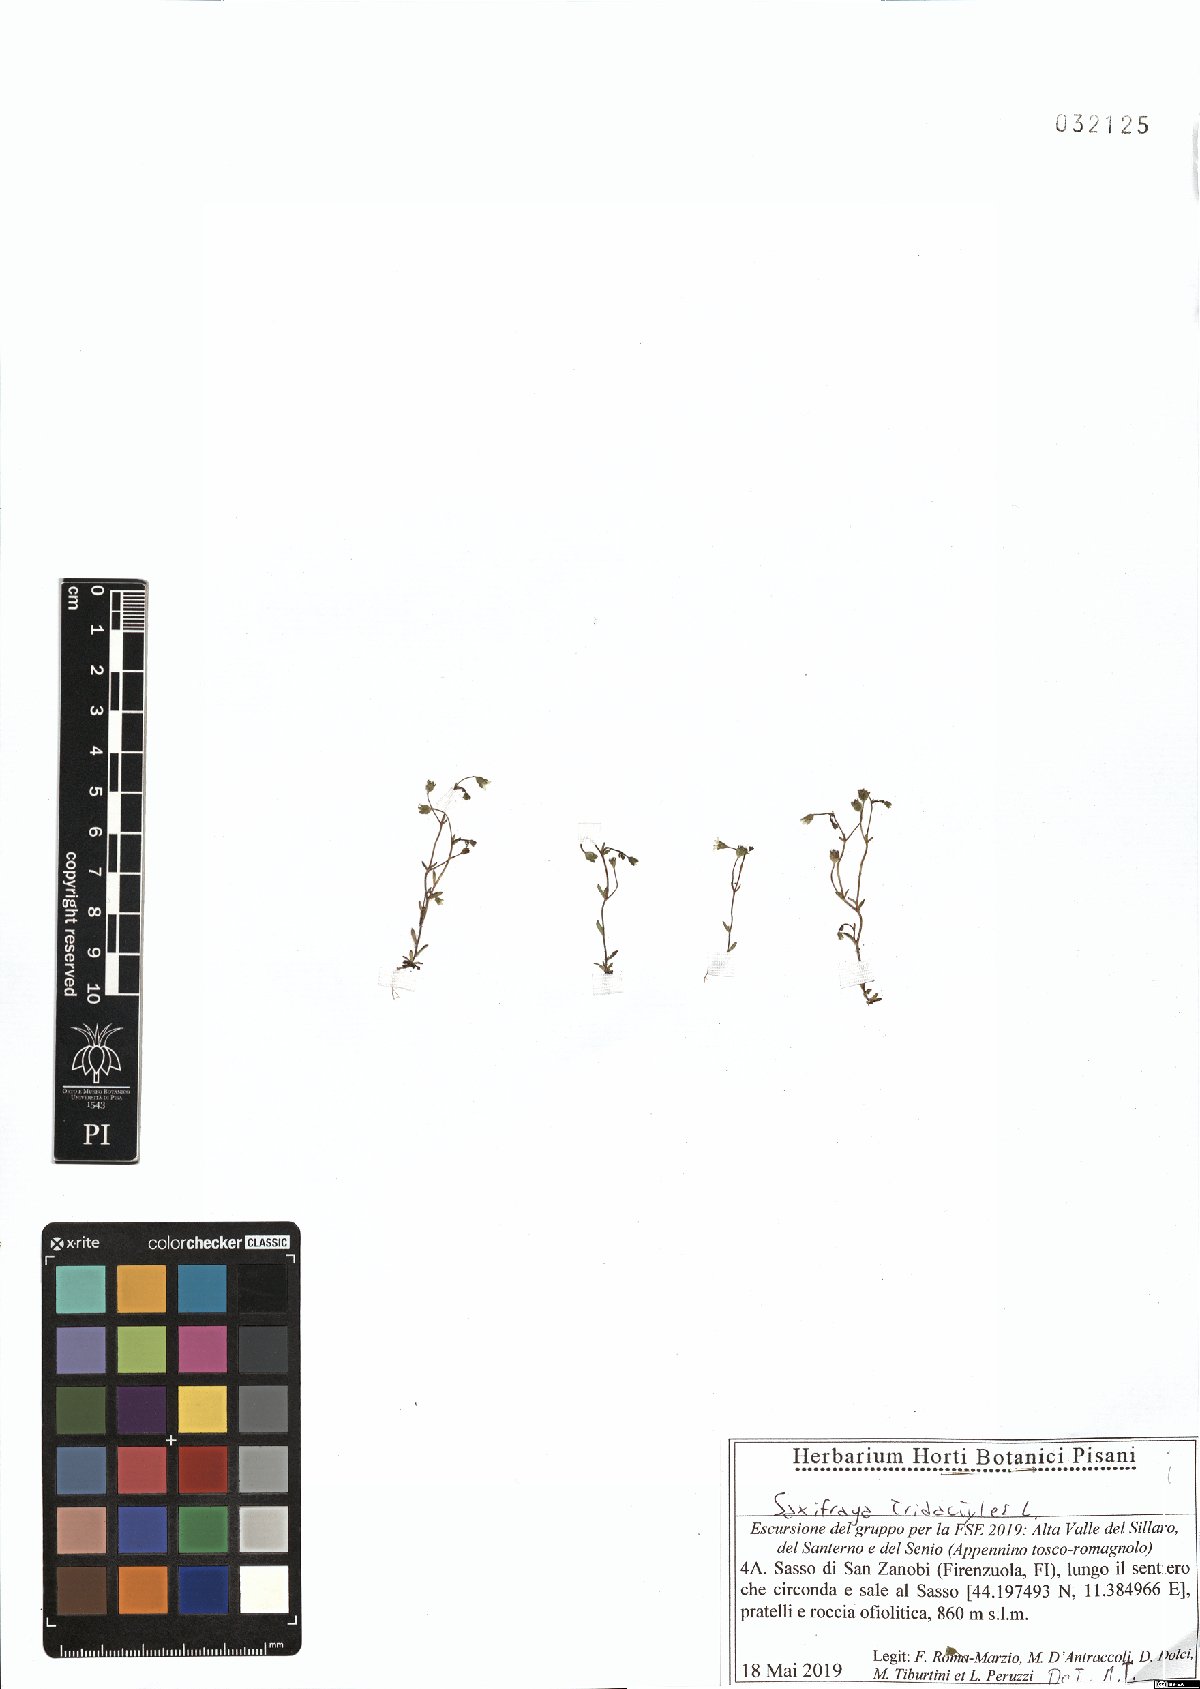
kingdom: Plantae
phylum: Tracheophyta
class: Magnoliopsida
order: Saxifragales
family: Saxifragaceae
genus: Saxifraga
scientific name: Saxifraga tridactylites
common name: Rue-leaved saxifrage
